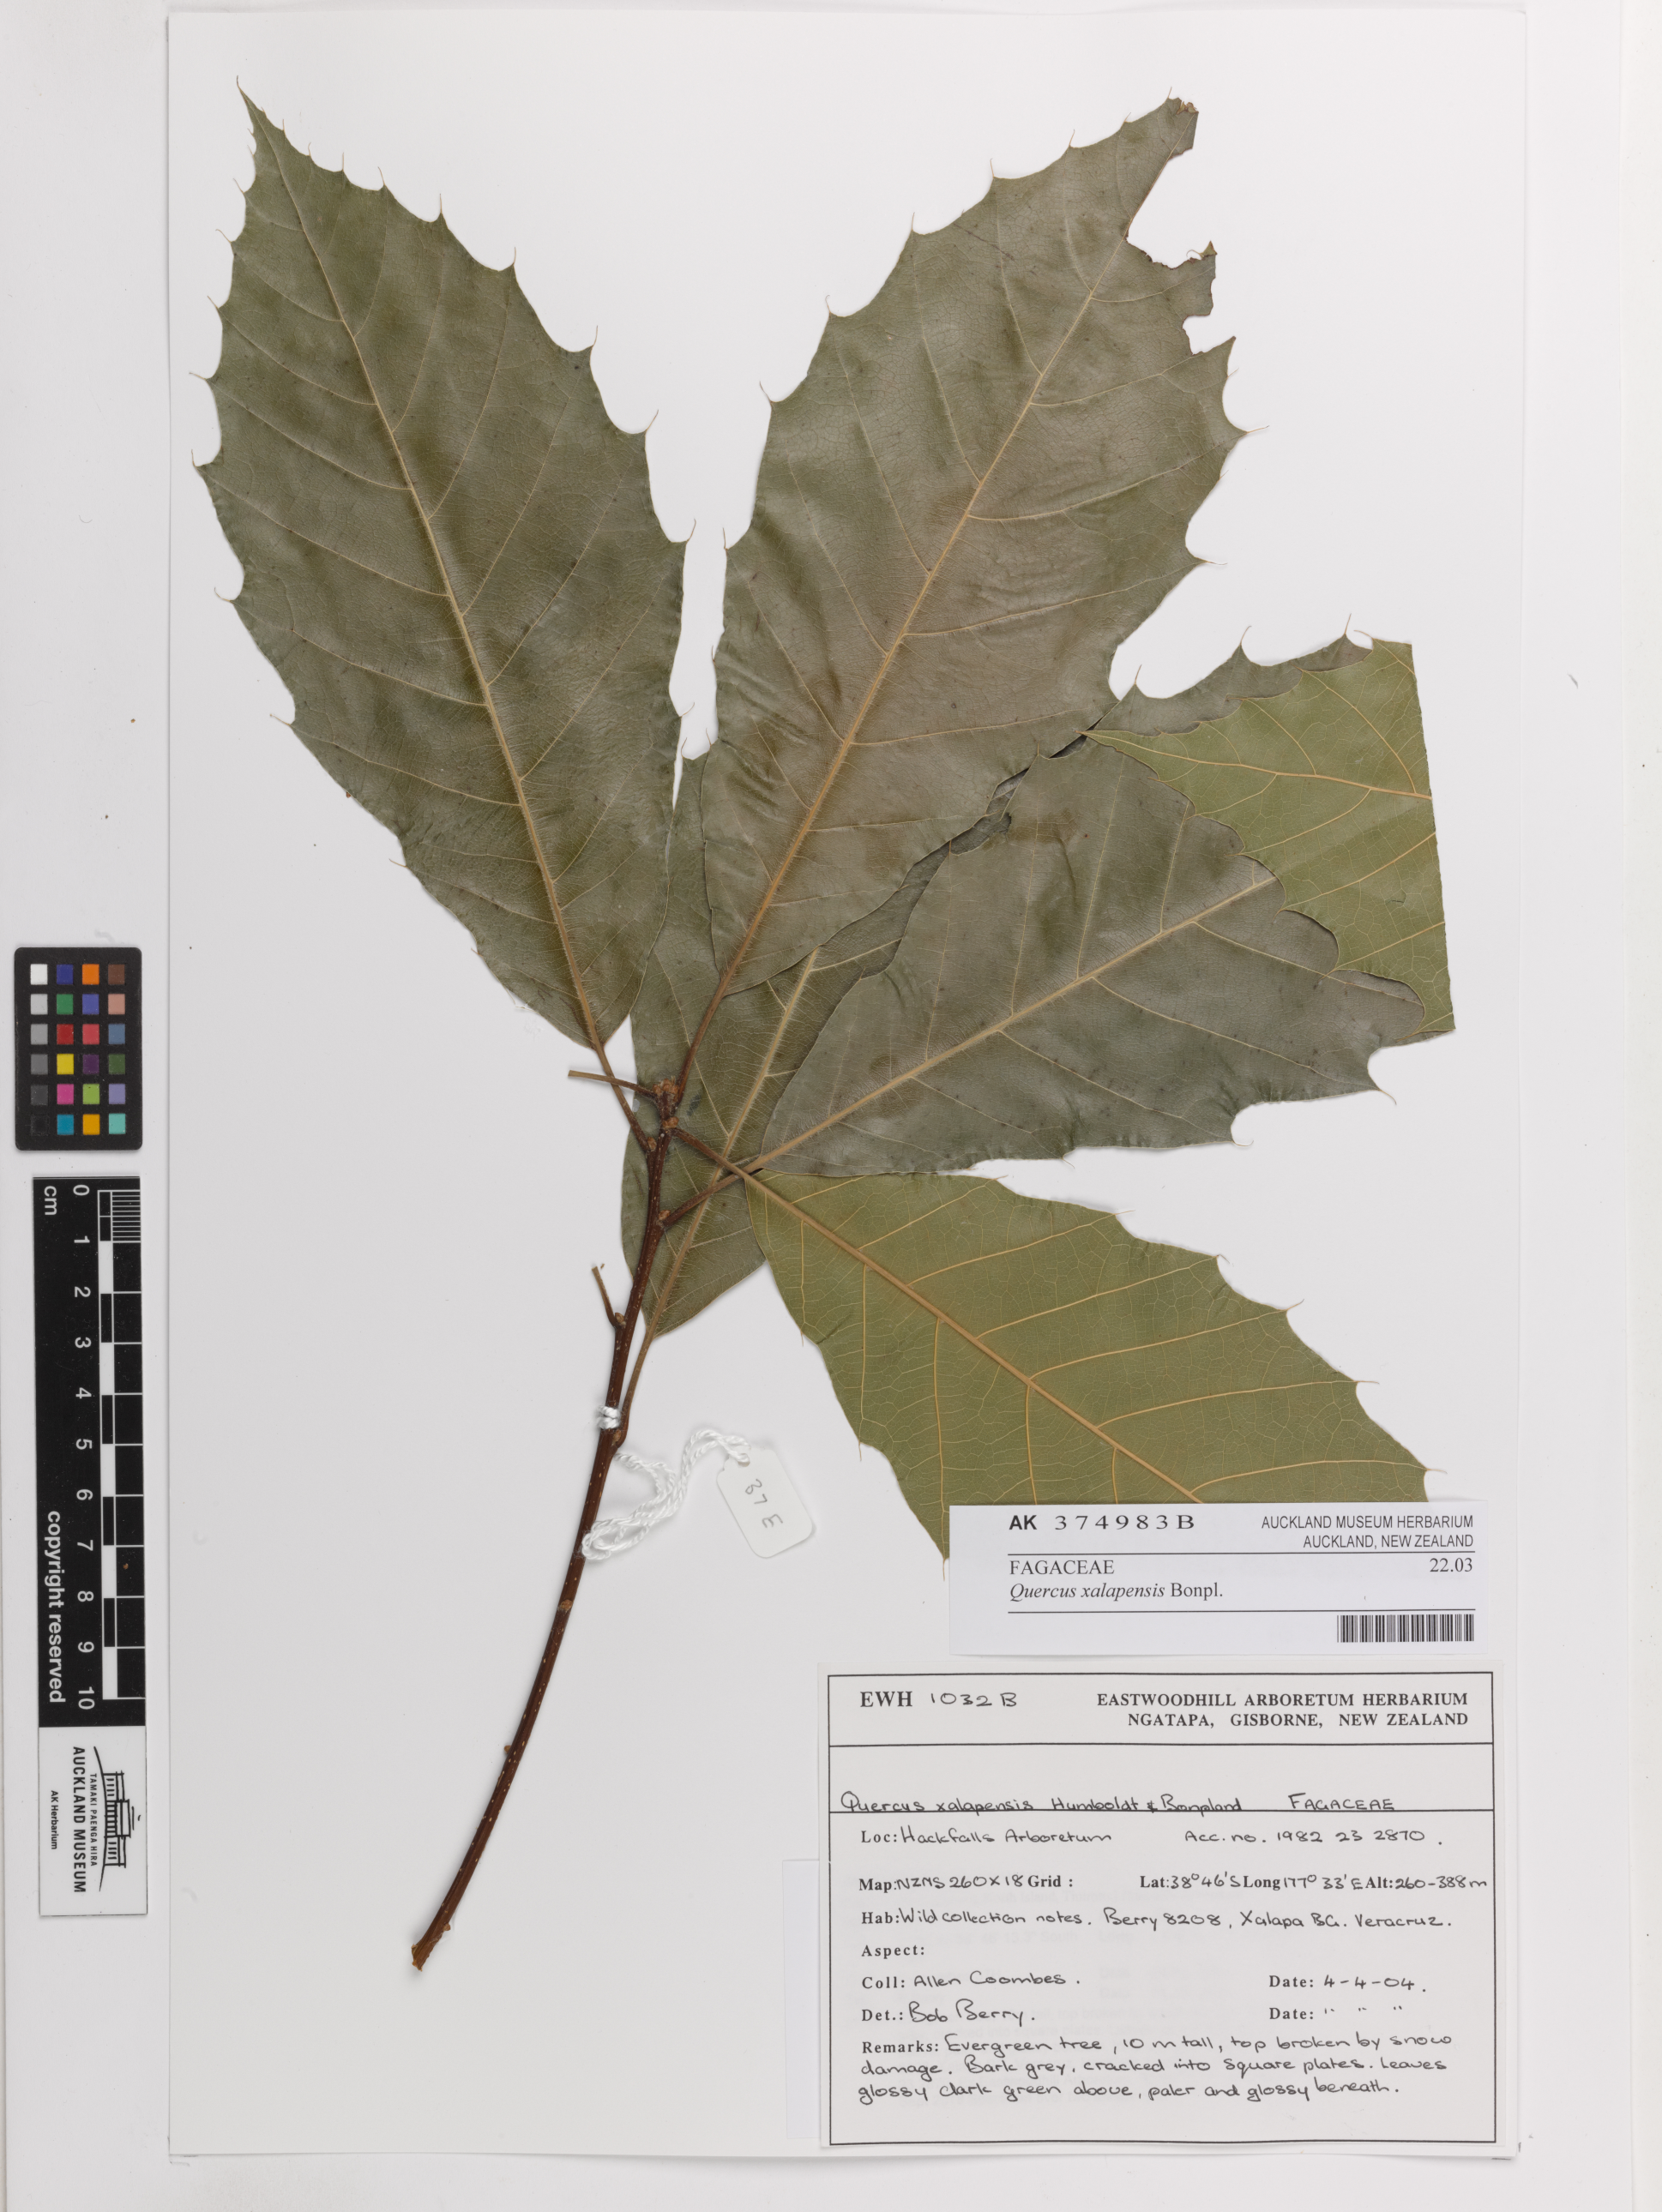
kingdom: Plantae
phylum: Tracheophyta
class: Magnoliopsida
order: Fagales
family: Fagaceae
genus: Quercus
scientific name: Quercus xalapensis
